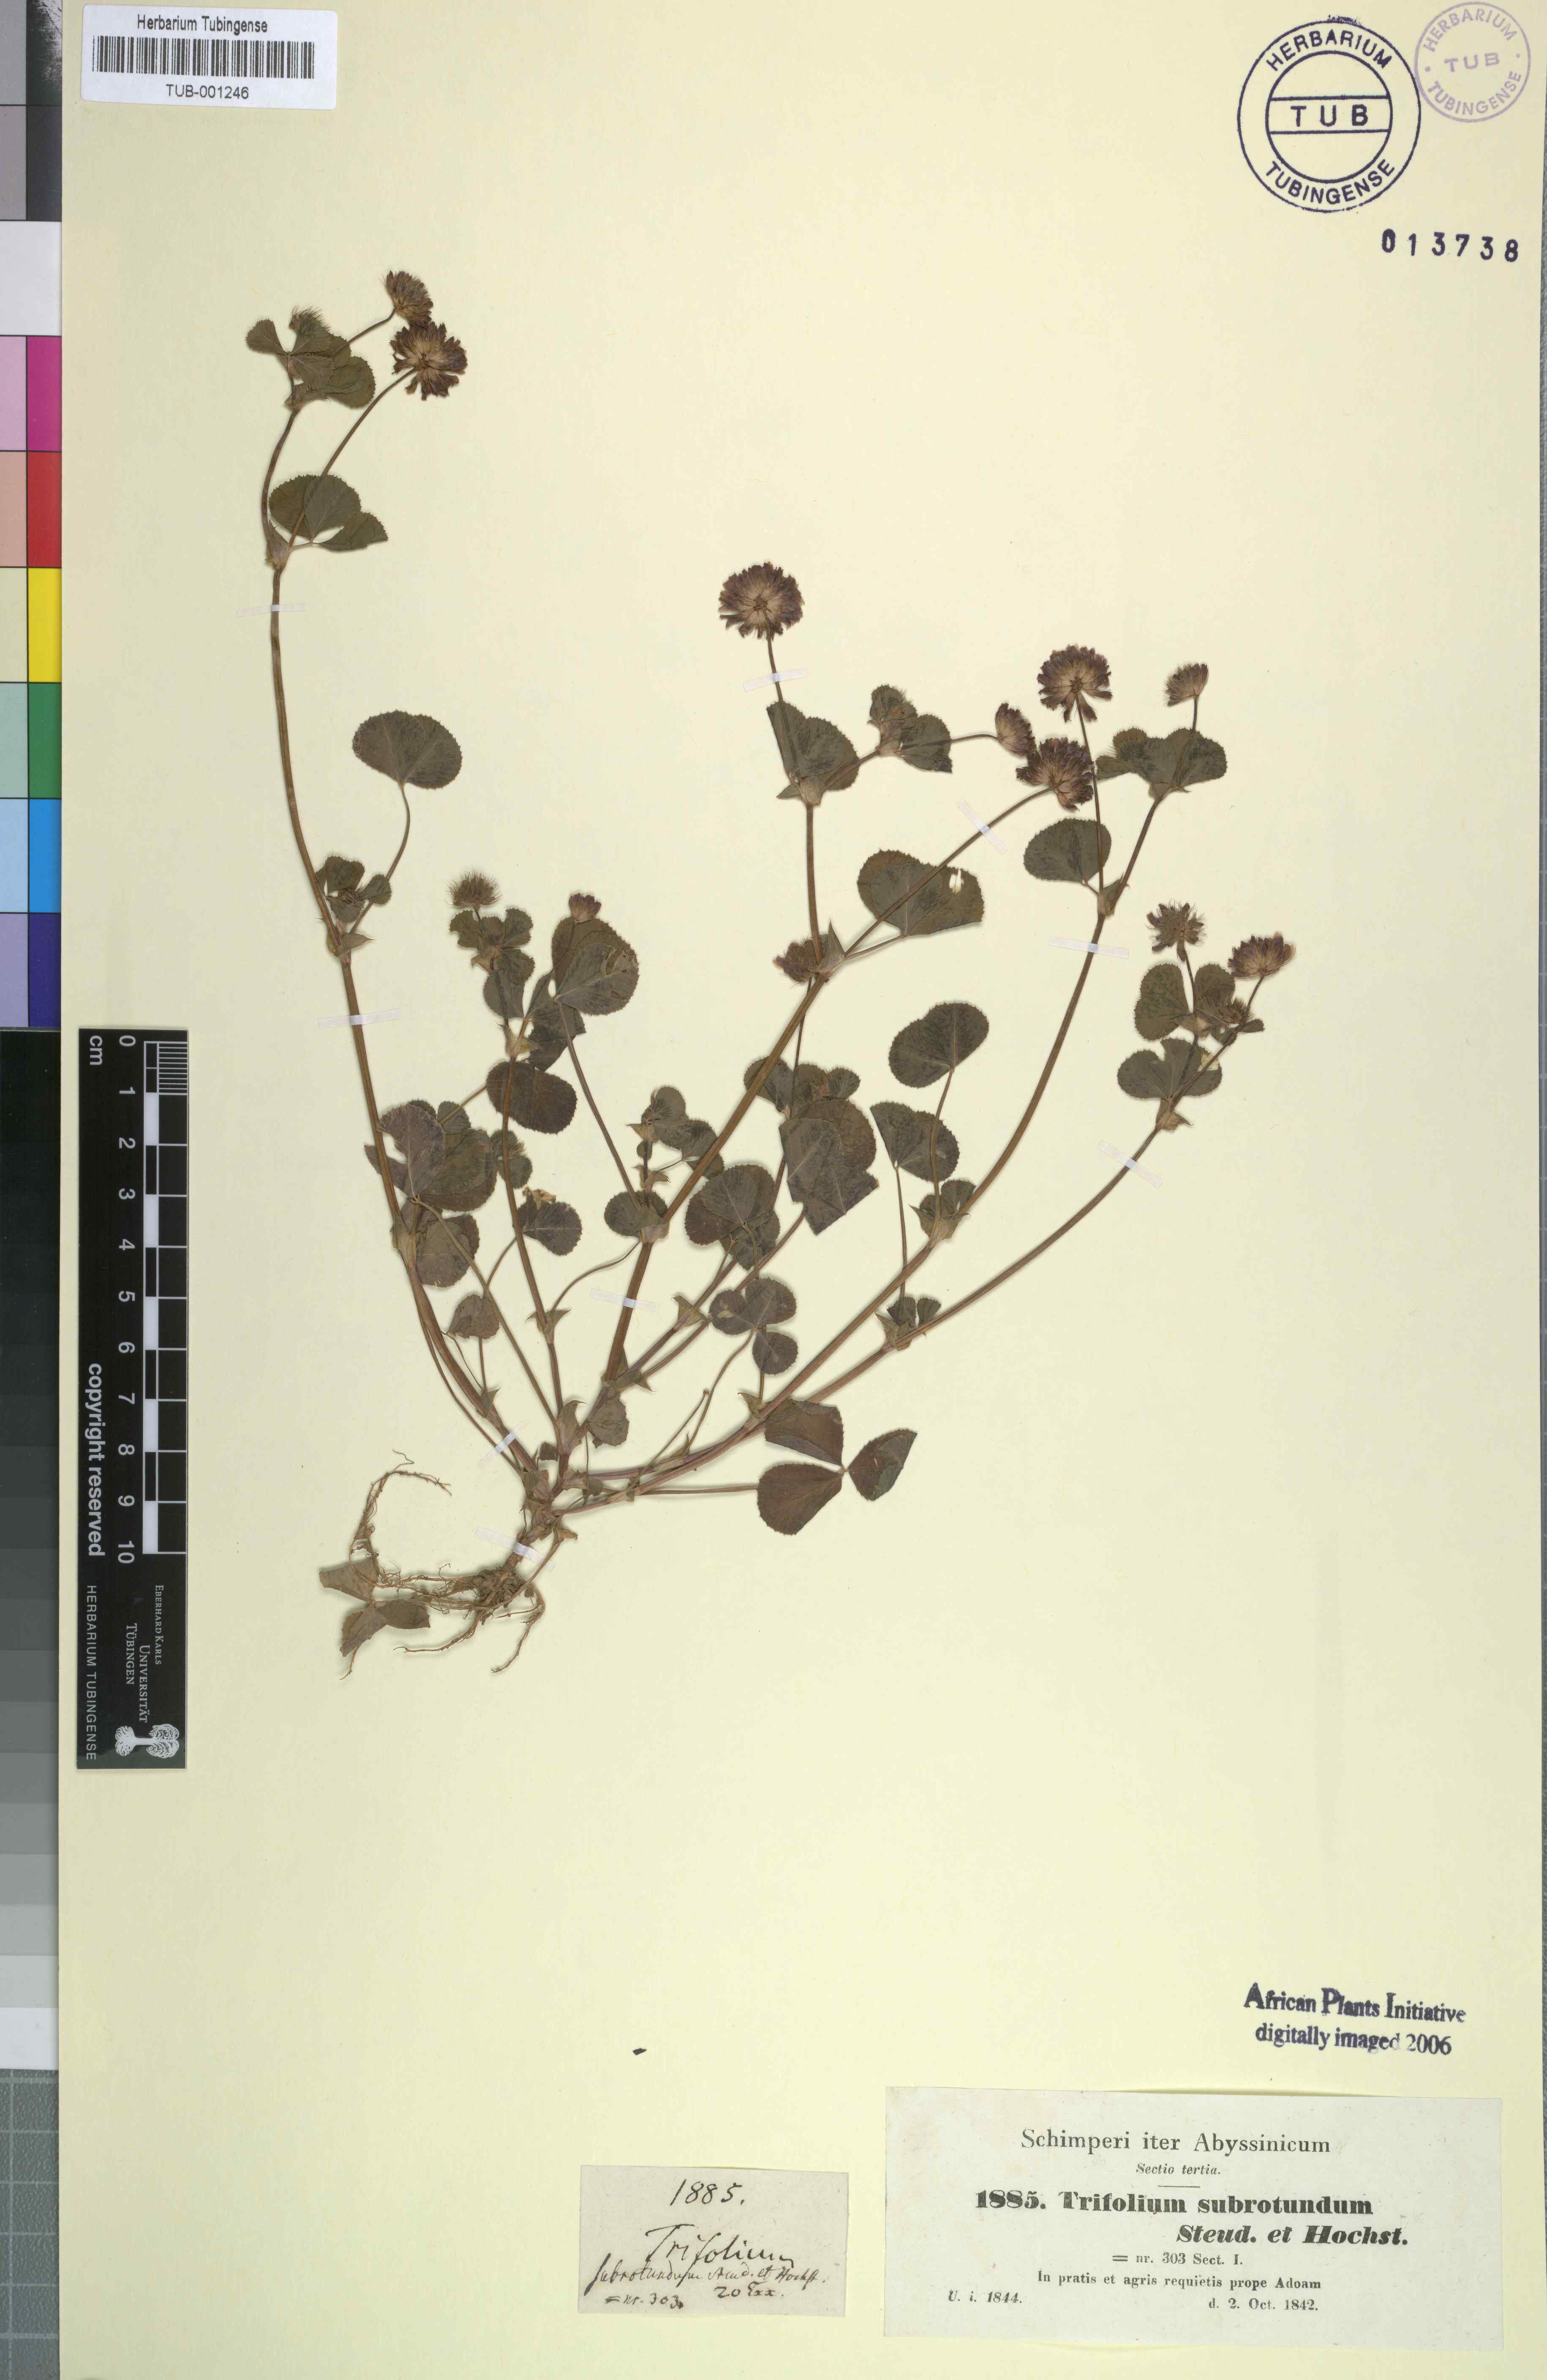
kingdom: Plantae
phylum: Tracheophyta
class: Magnoliopsida
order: Fabales
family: Fabaceae
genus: Trifolium
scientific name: Trifolium rueppellianum
